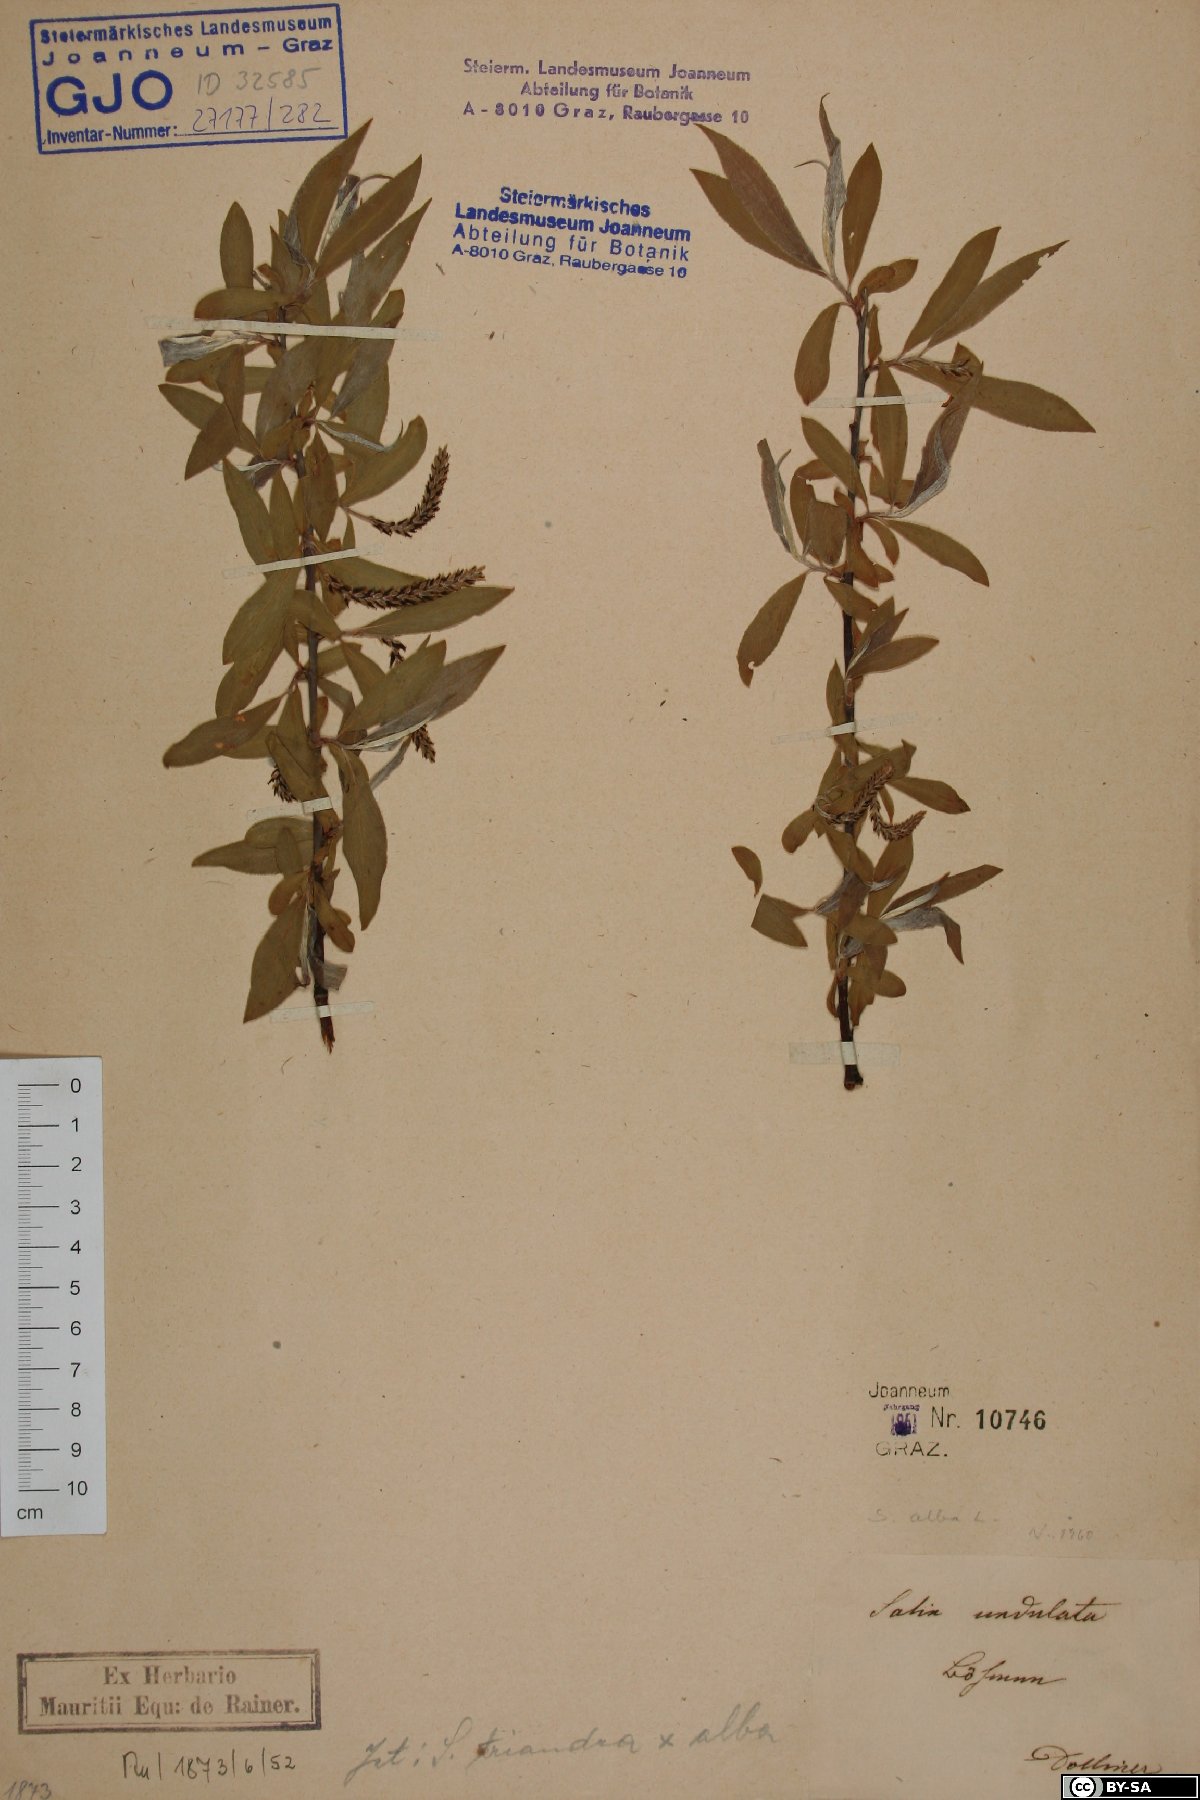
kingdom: Plantae
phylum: Tracheophyta
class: Magnoliopsida
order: Malpighiales
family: Salicaceae
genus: Salix
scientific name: Salix alba
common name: White willow
